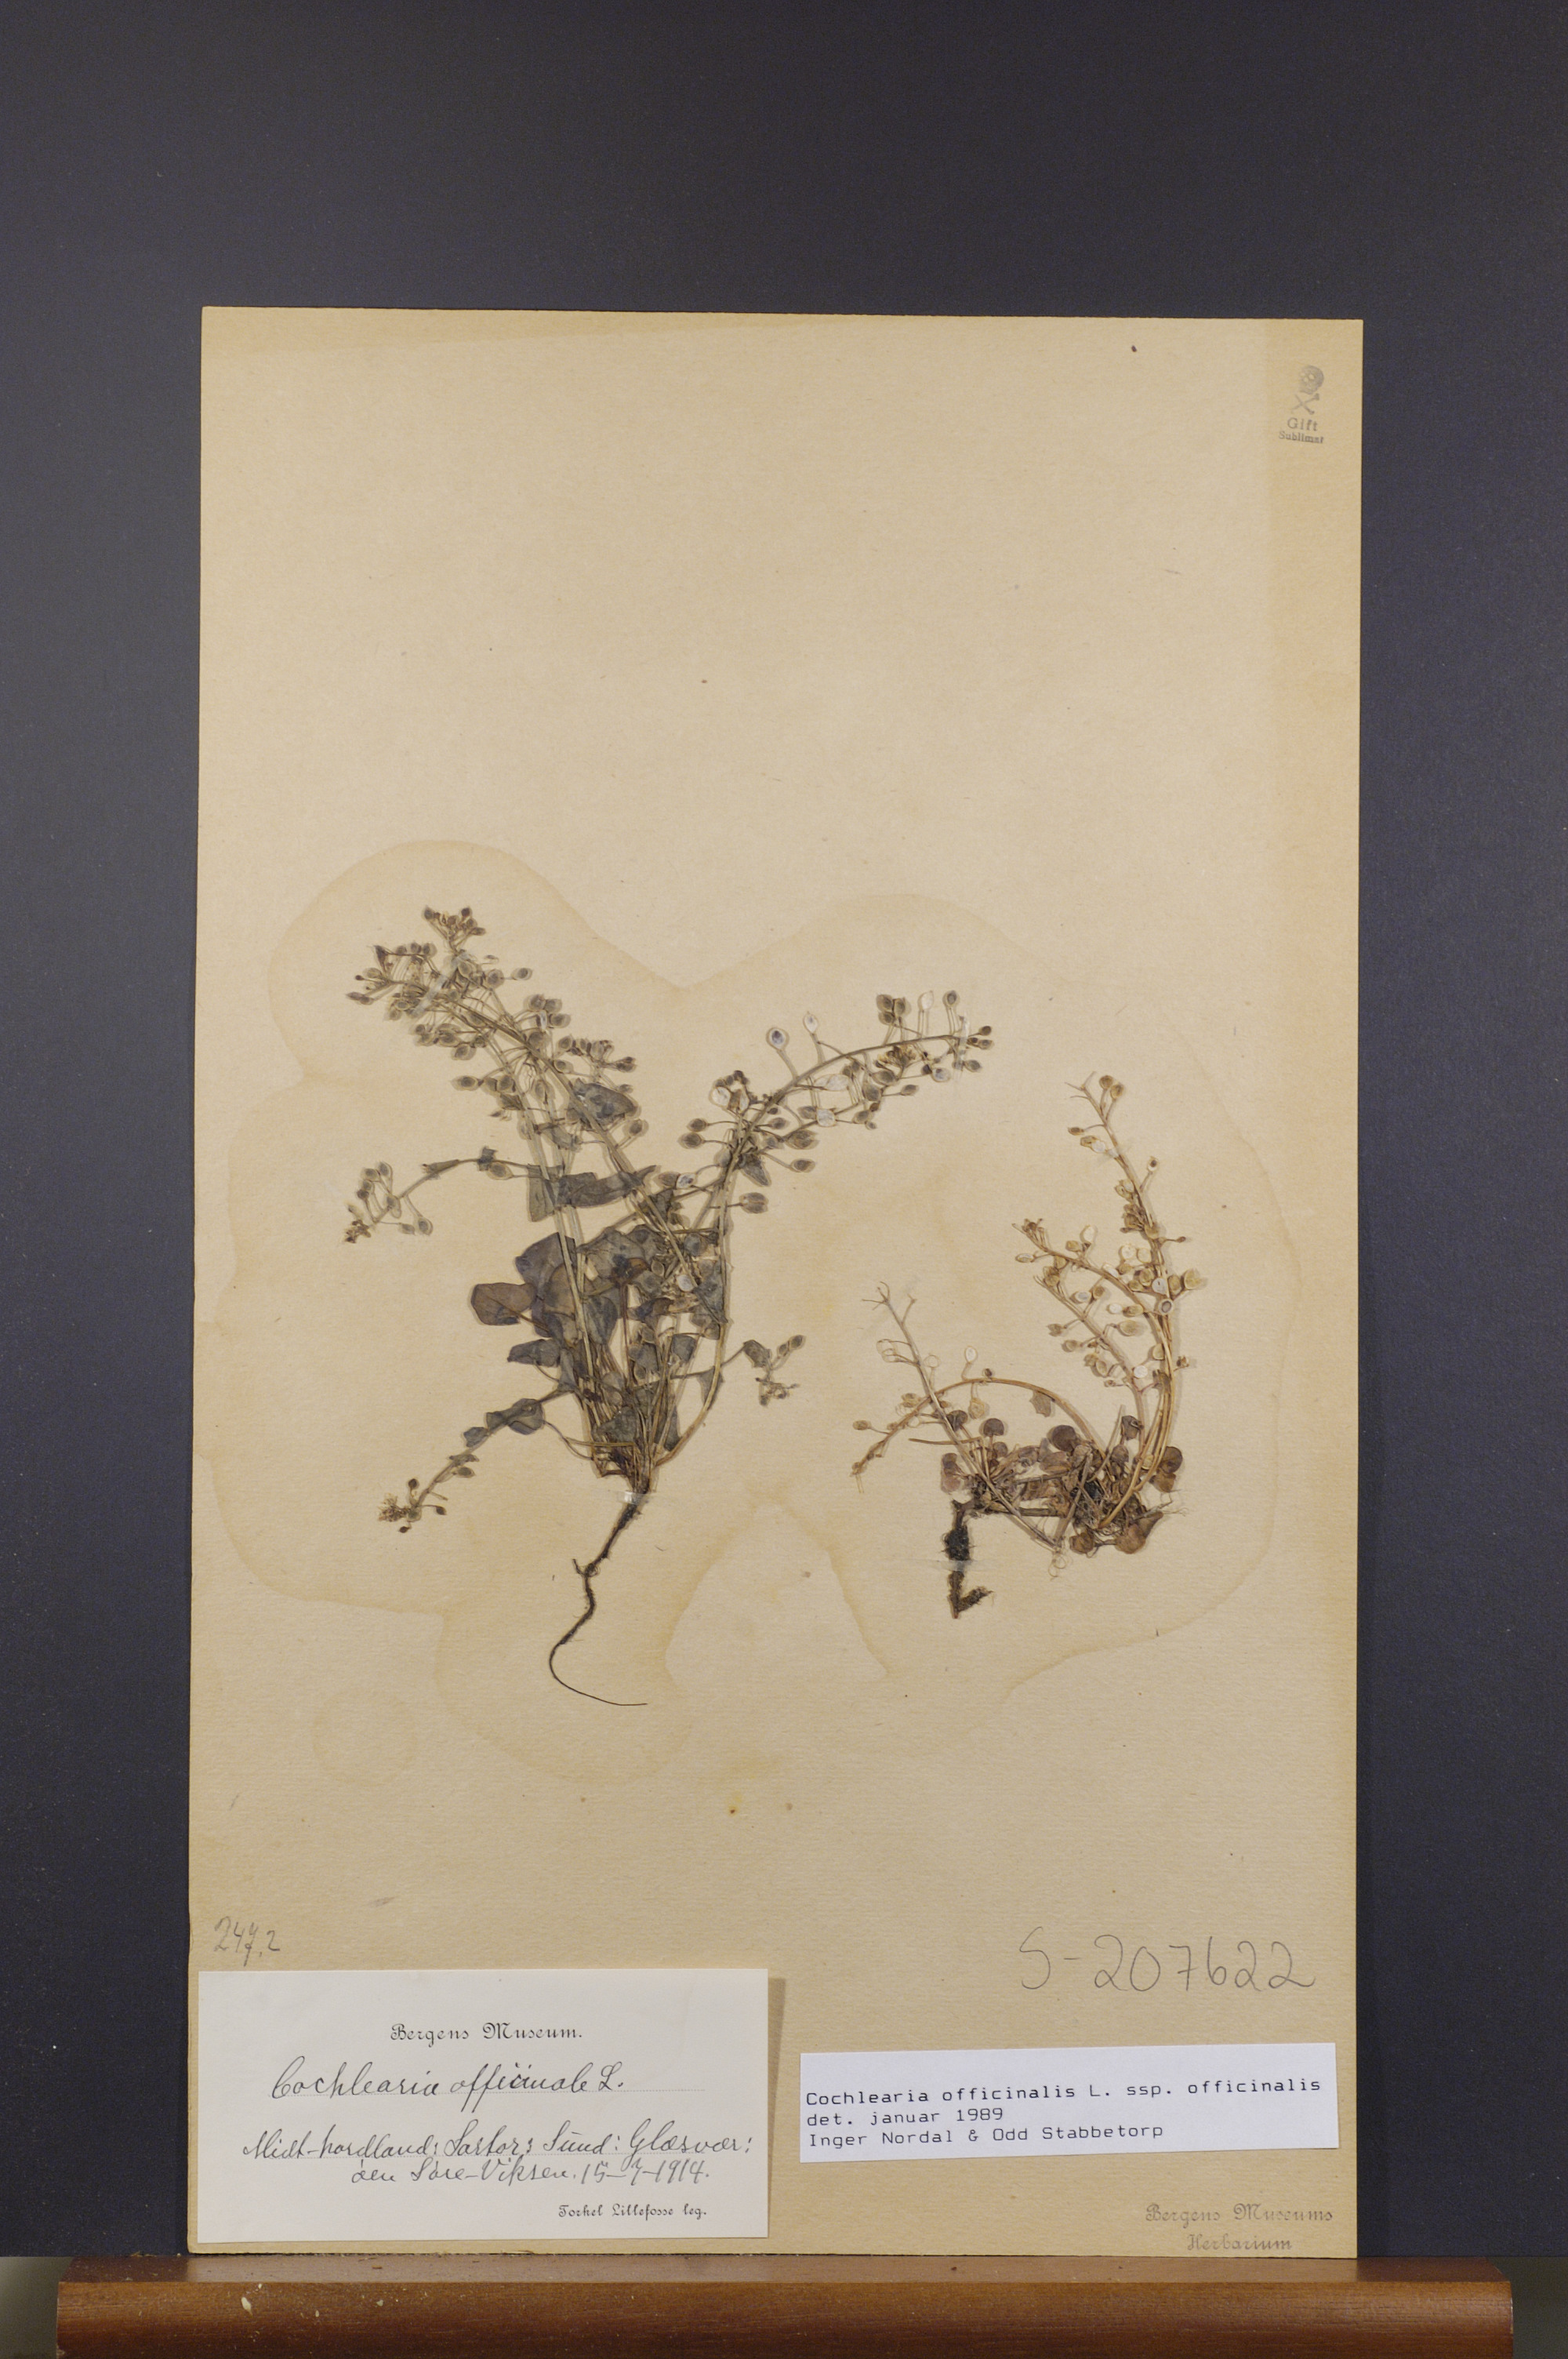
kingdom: Plantae
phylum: Tracheophyta
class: Magnoliopsida
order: Brassicales
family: Brassicaceae
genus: Cochlearia
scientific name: Cochlearia officinalis
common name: Scurvy-grass
